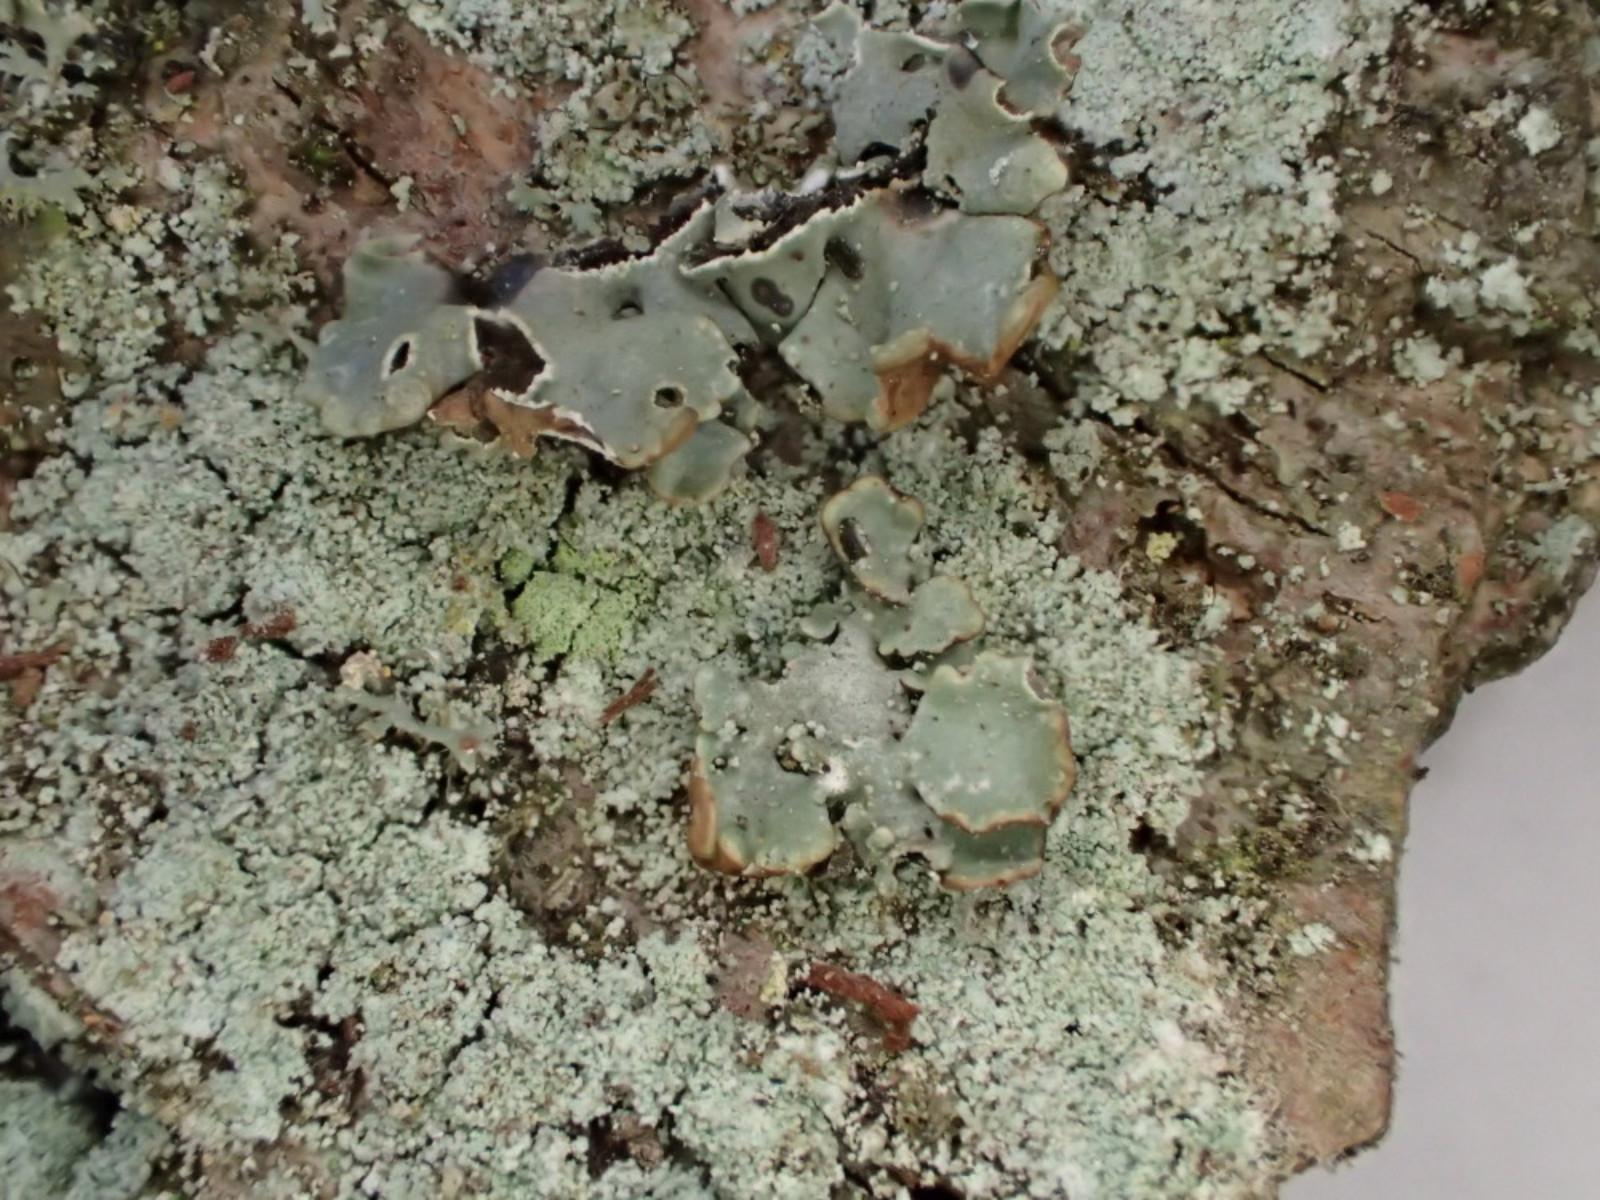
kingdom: Fungi
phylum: Ascomycota
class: Lecanoromycetes
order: Lecanorales
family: Parmeliaceae
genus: Hypogymnia
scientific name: Hypogymnia physodes
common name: almindelig kvistlav
